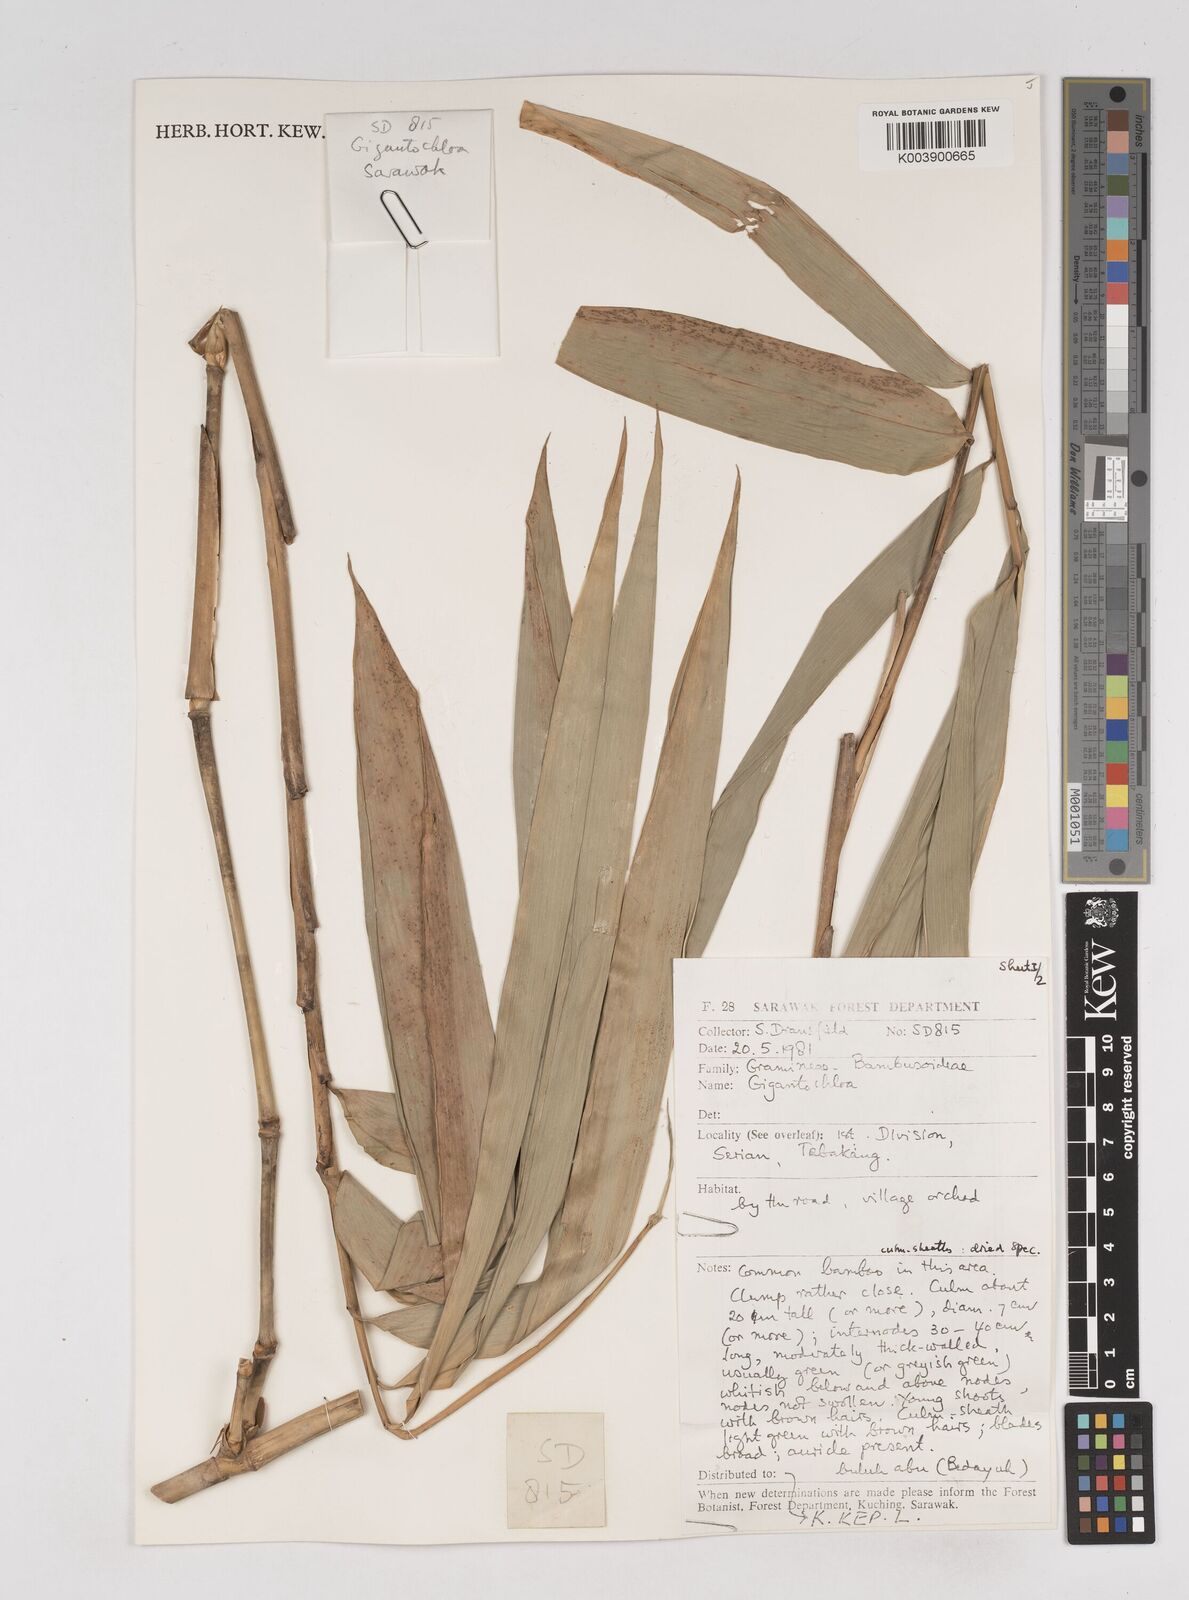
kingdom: Plantae
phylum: Tracheophyta
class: Liliopsida
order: Poales
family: Poaceae
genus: Gigantochloa
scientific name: Gigantochloa
